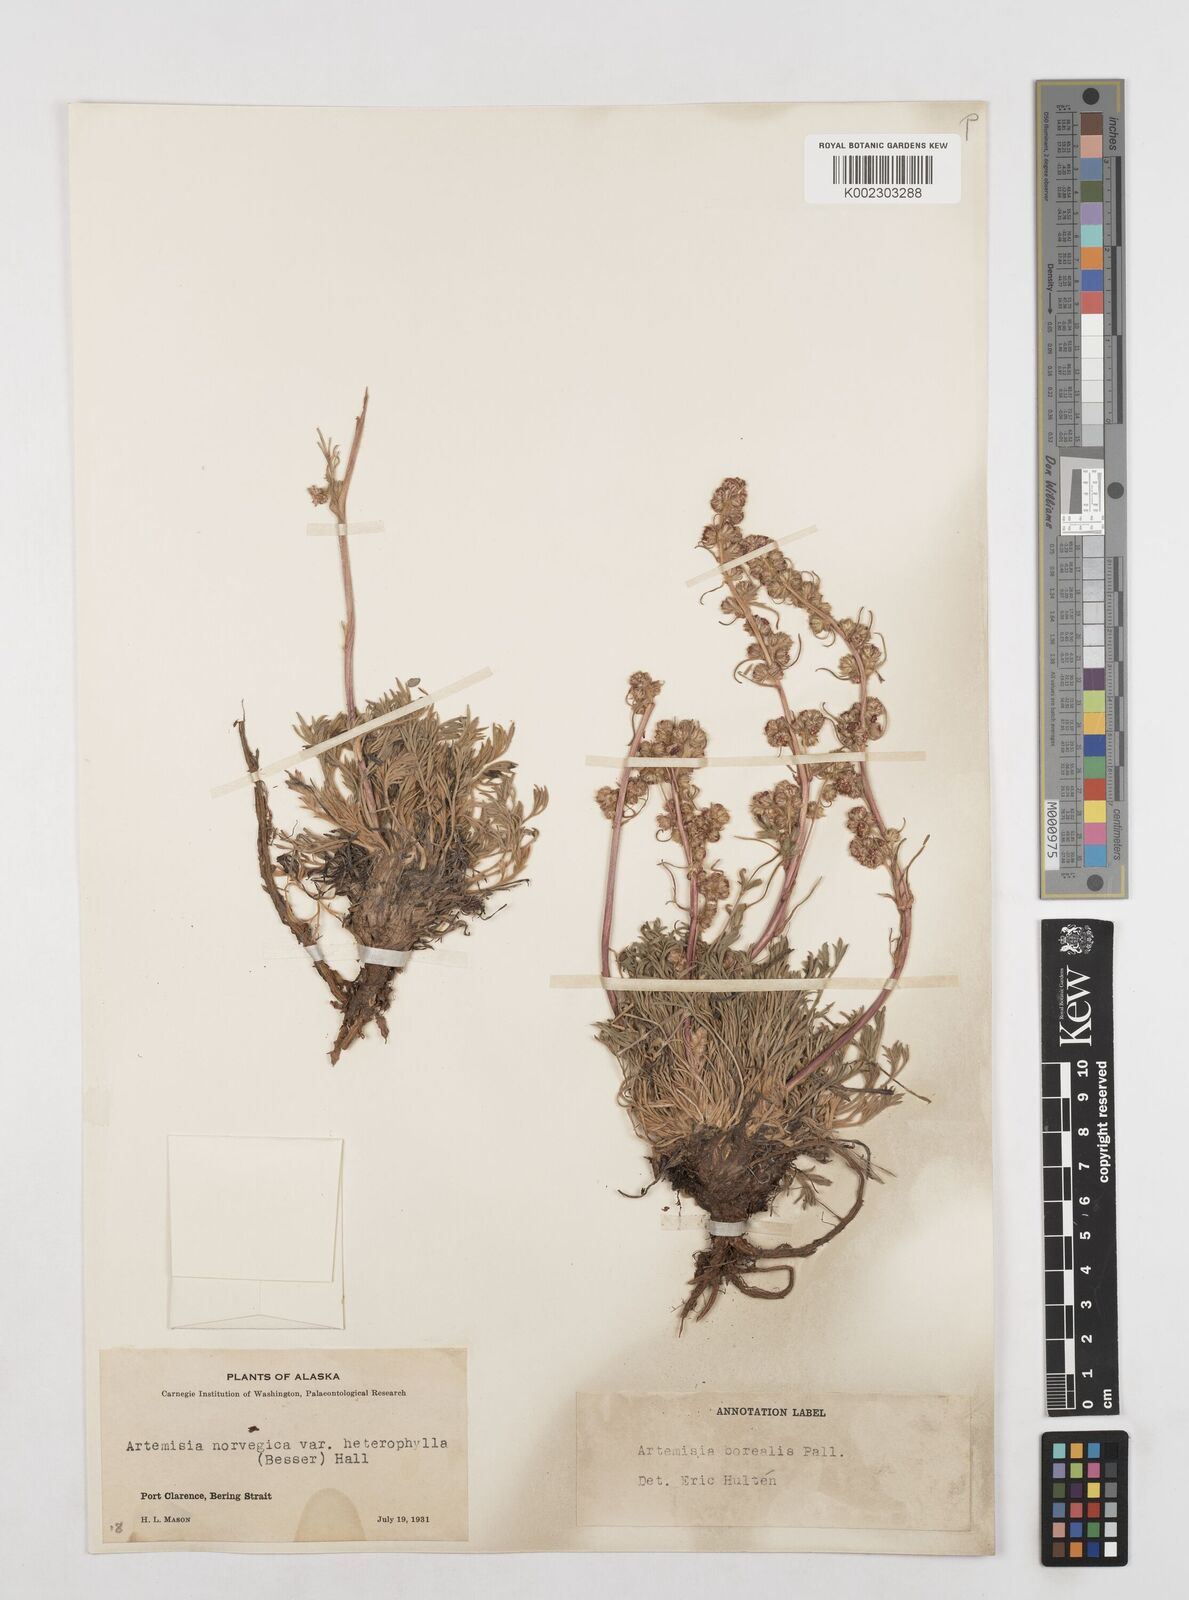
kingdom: Plantae
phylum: Tracheophyta
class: Magnoliopsida
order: Asterales
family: Asteraceae
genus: Artemisia
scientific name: Artemisia borealis
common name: Boreal sage
